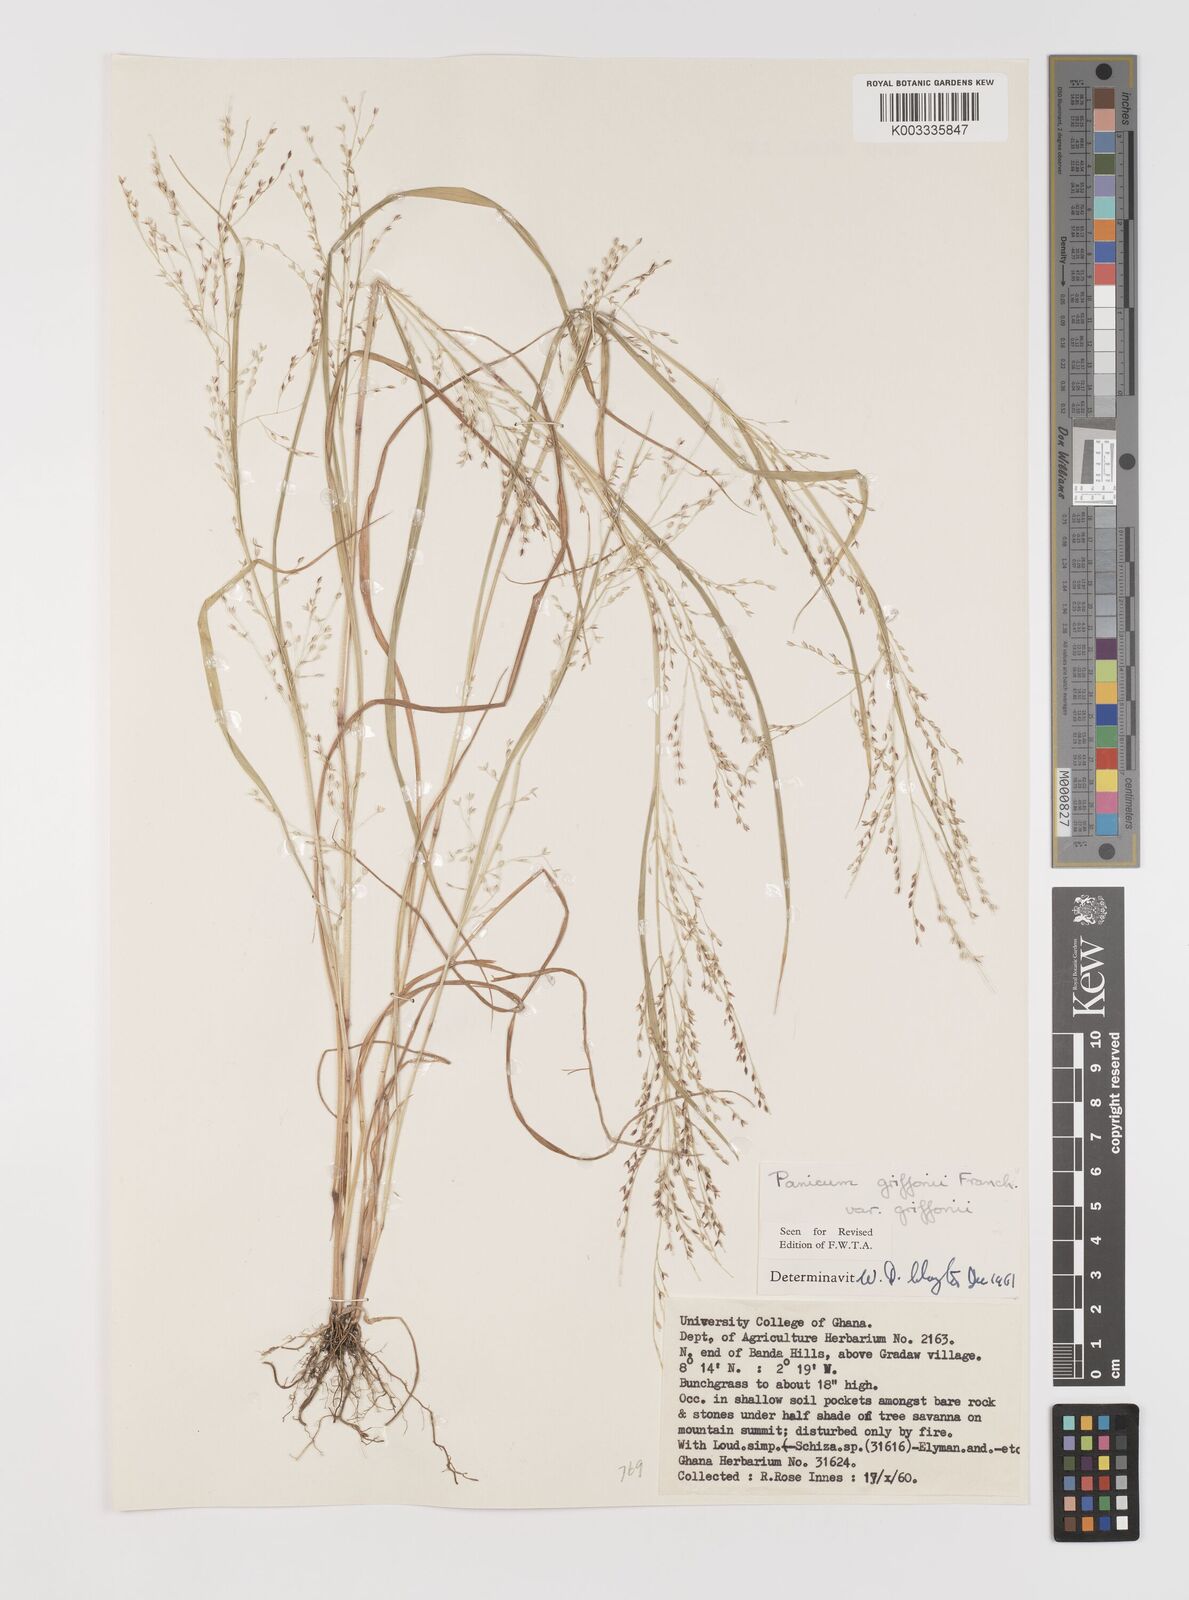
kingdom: Plantae
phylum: Tracheophyta
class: Liliopsida
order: Poales
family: Poaceae
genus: Panicum
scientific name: Panicum griffonii
